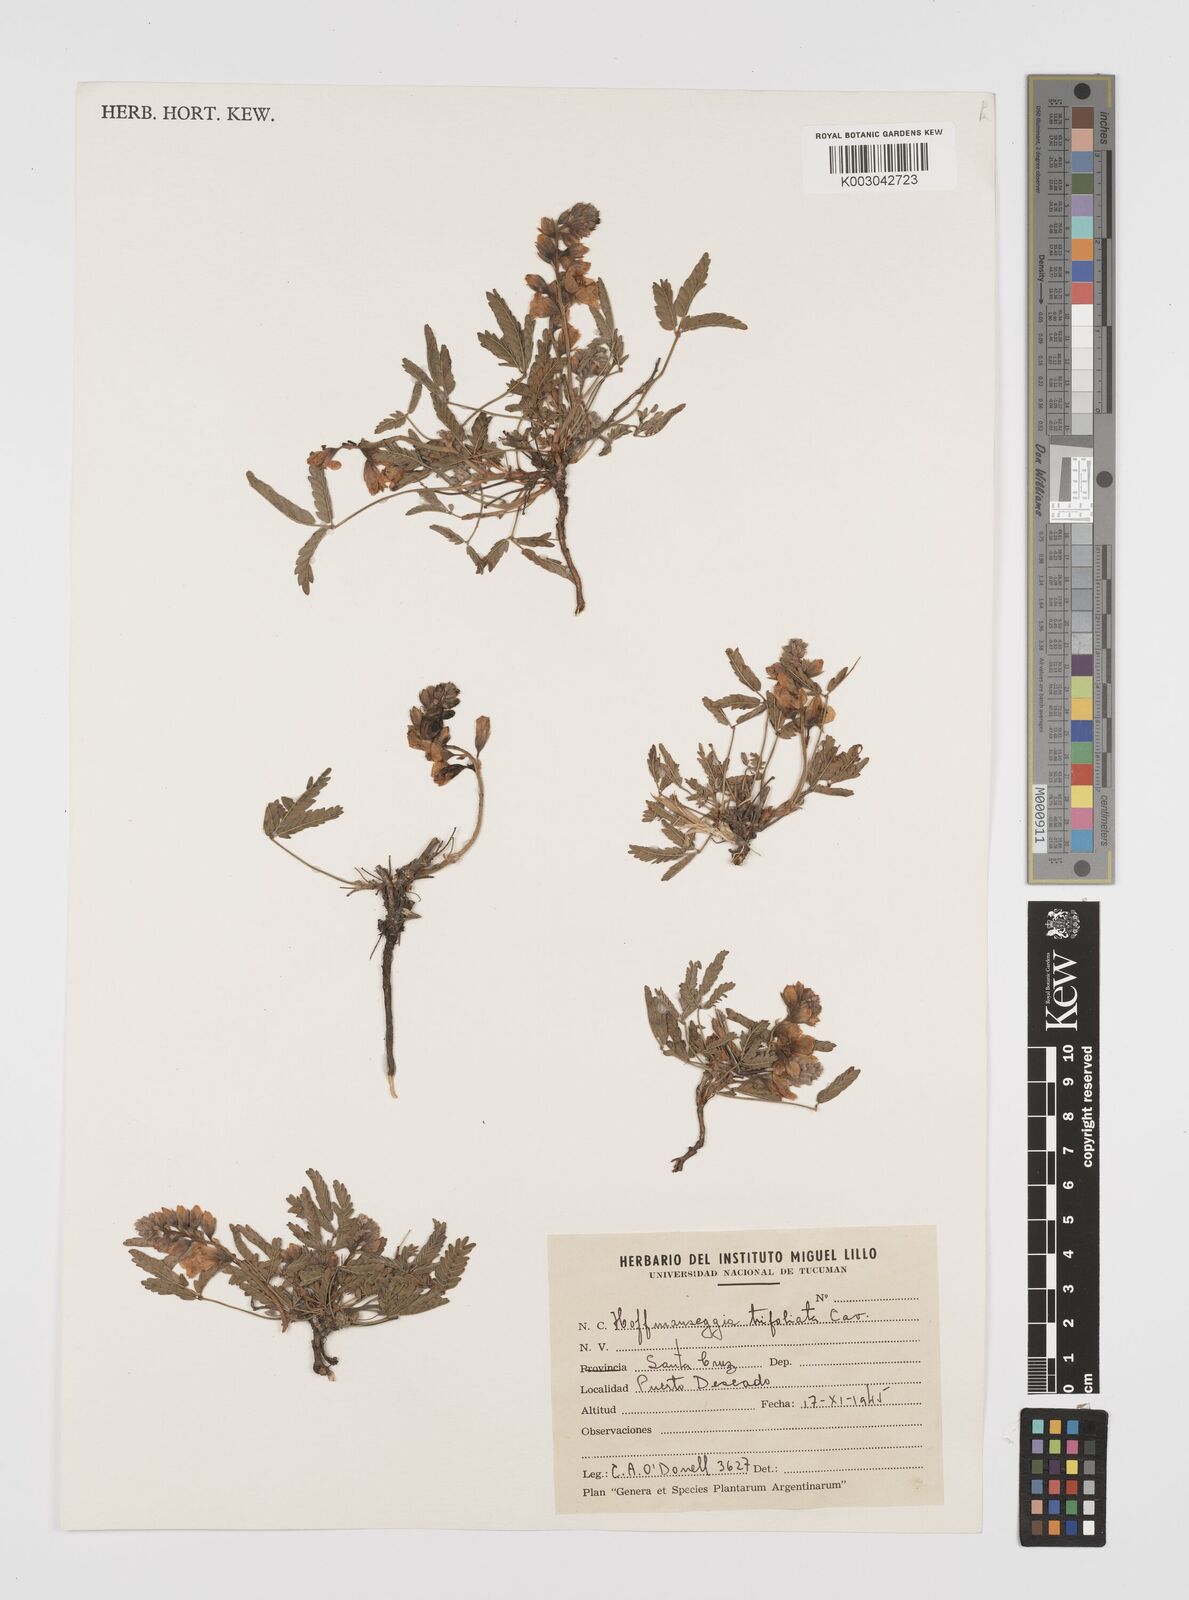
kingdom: Plantae
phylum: Tracheophyta
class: Magnoliopsida
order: Fabales
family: Fabaceae
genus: Hoffmannseggia
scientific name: Hoffmannseggia trifoliata
